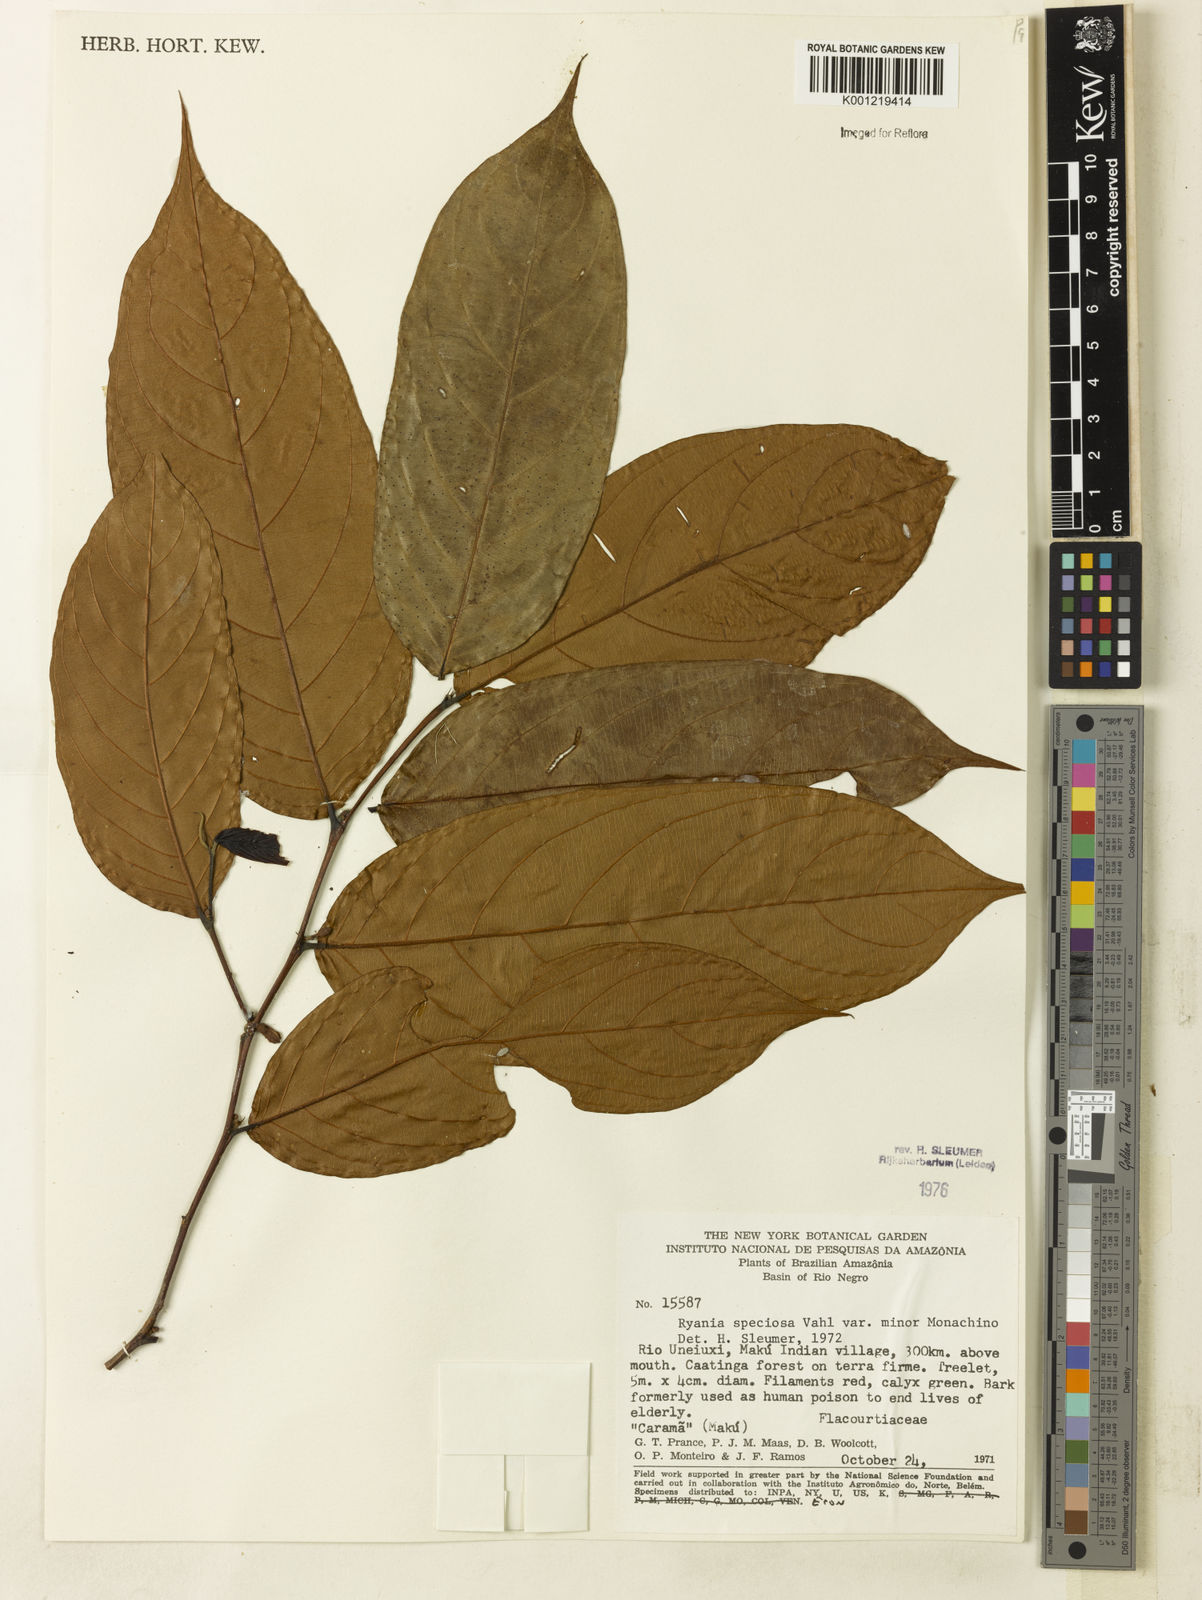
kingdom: Plantae
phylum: Tracheophyta
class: Magnoliopsida
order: Malpighiales
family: Salicaceae
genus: Ryania
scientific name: Ryania speciosa
